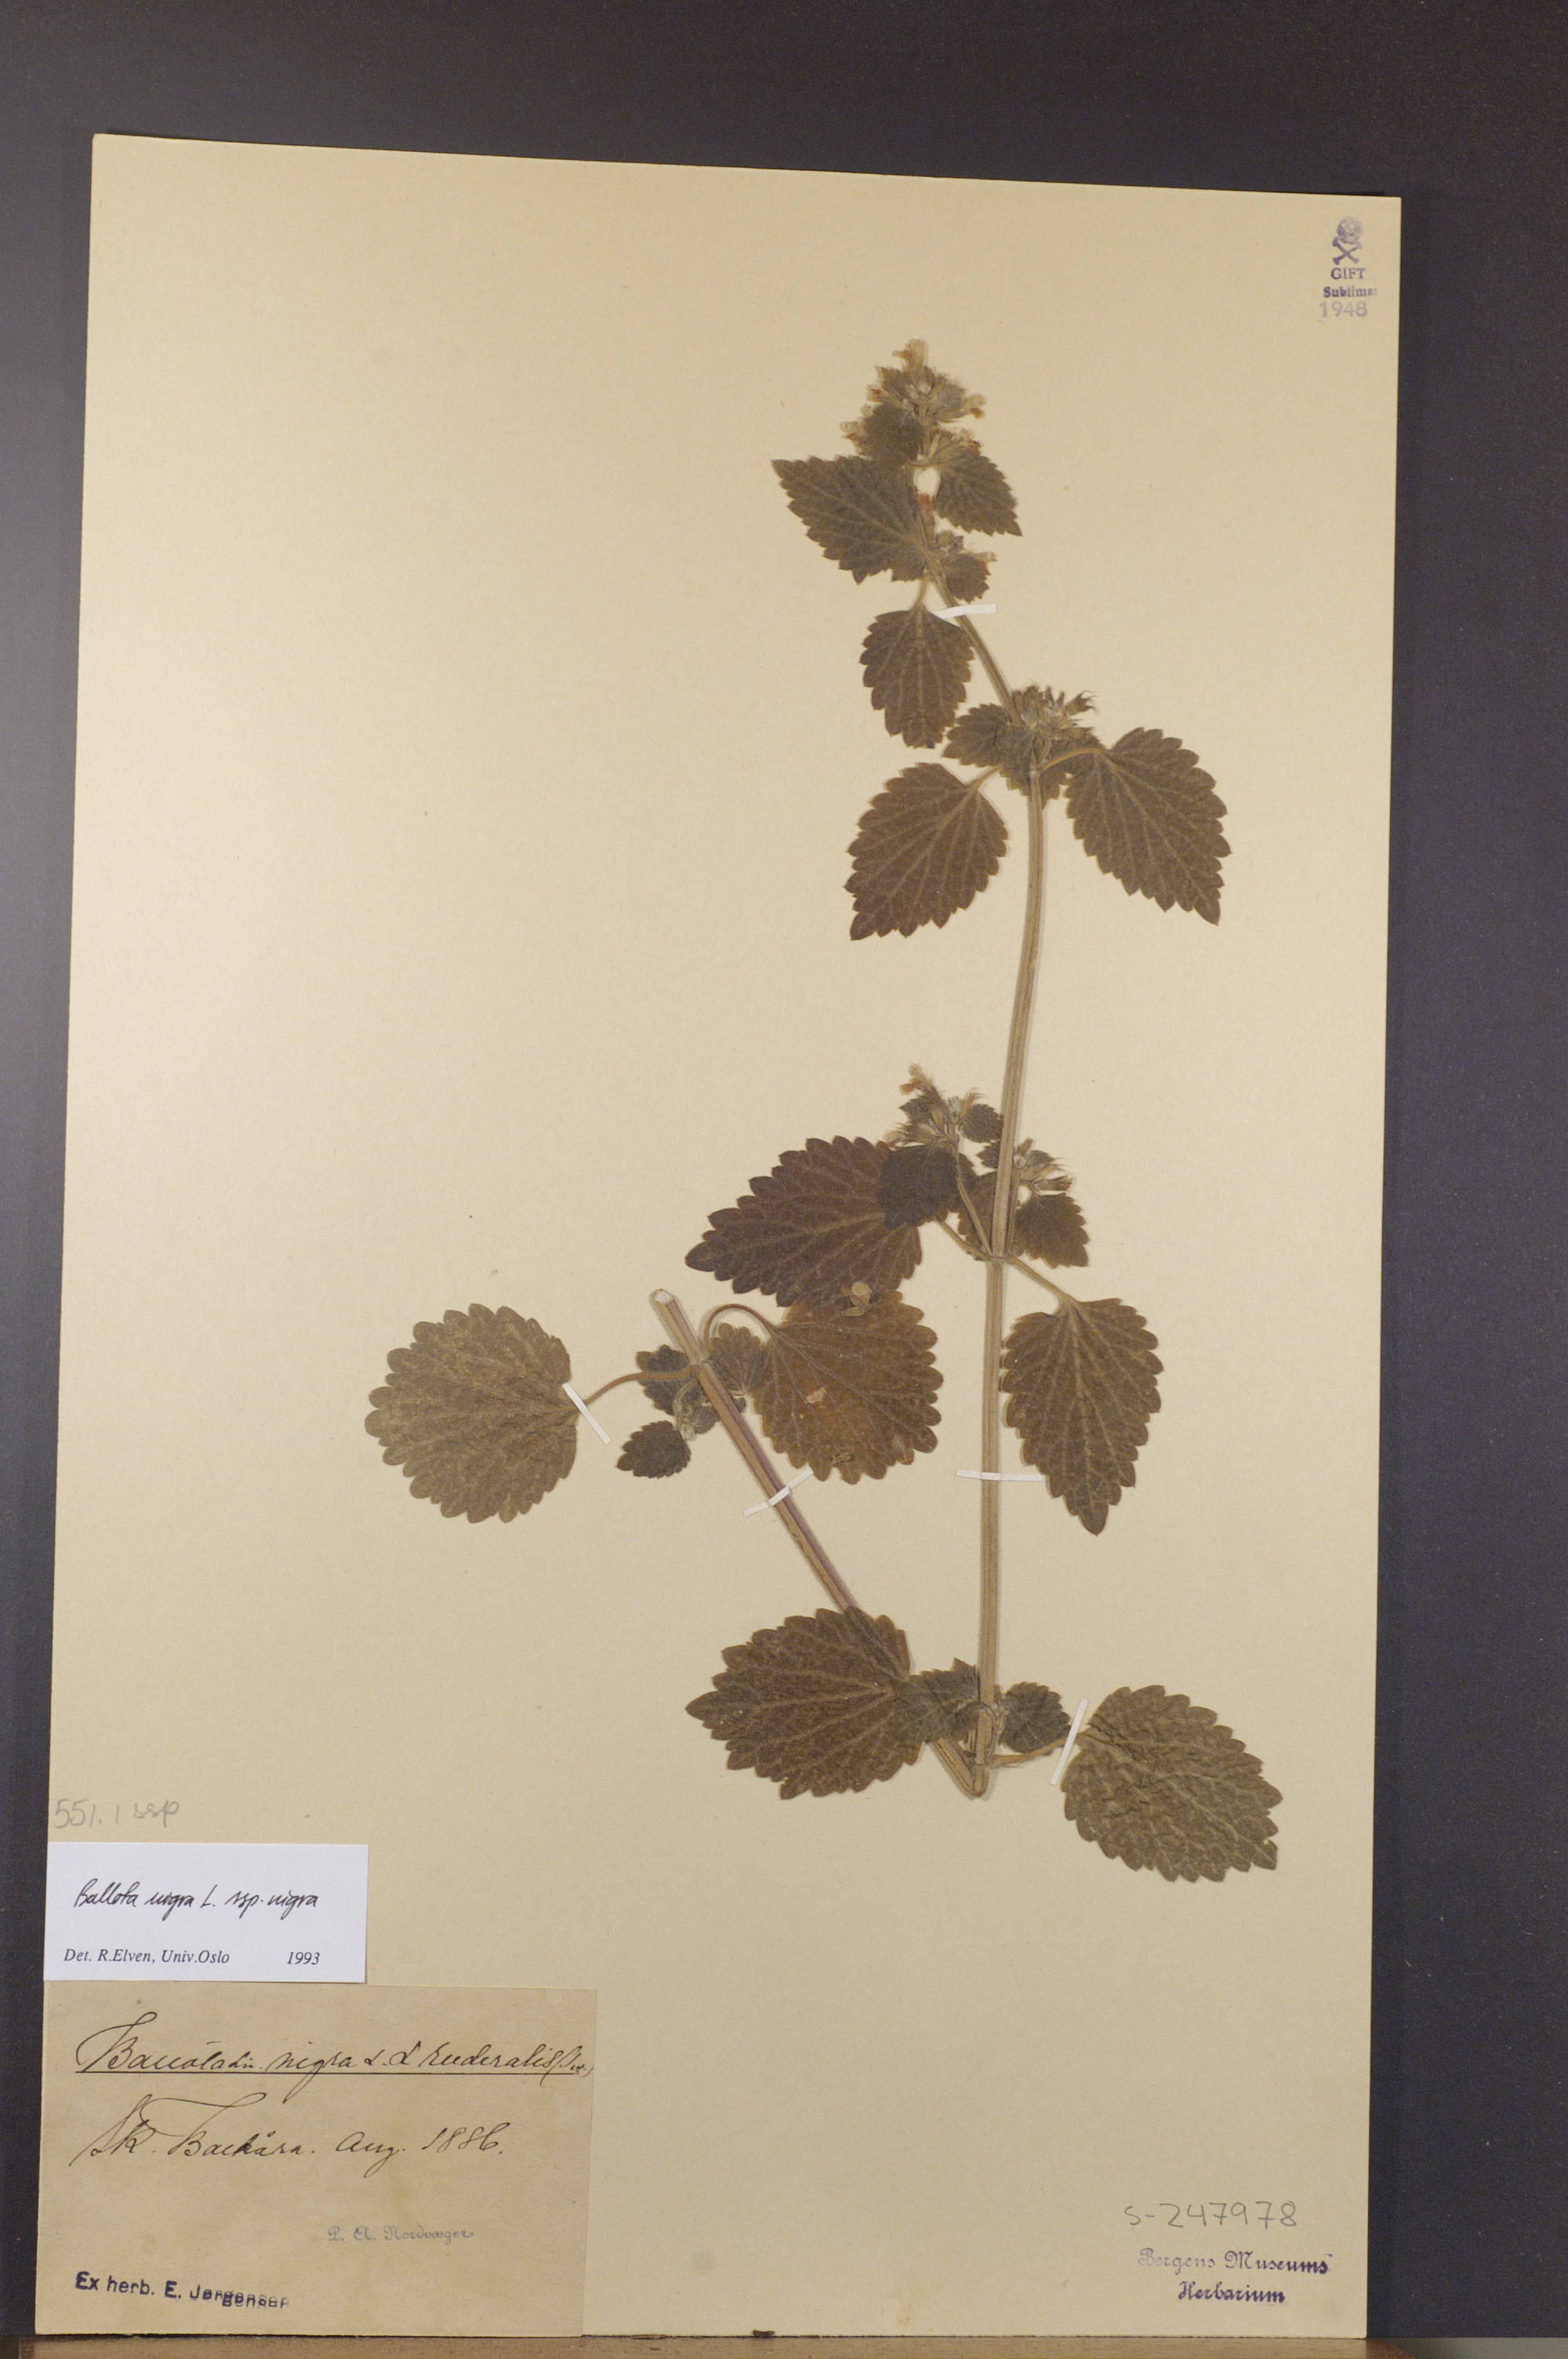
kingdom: Plantae
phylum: Tracheophyta
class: Magnoliopsida
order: Lamiales
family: Lamiaceae
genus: Ballota
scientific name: Ballota nigra
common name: Black horehound
